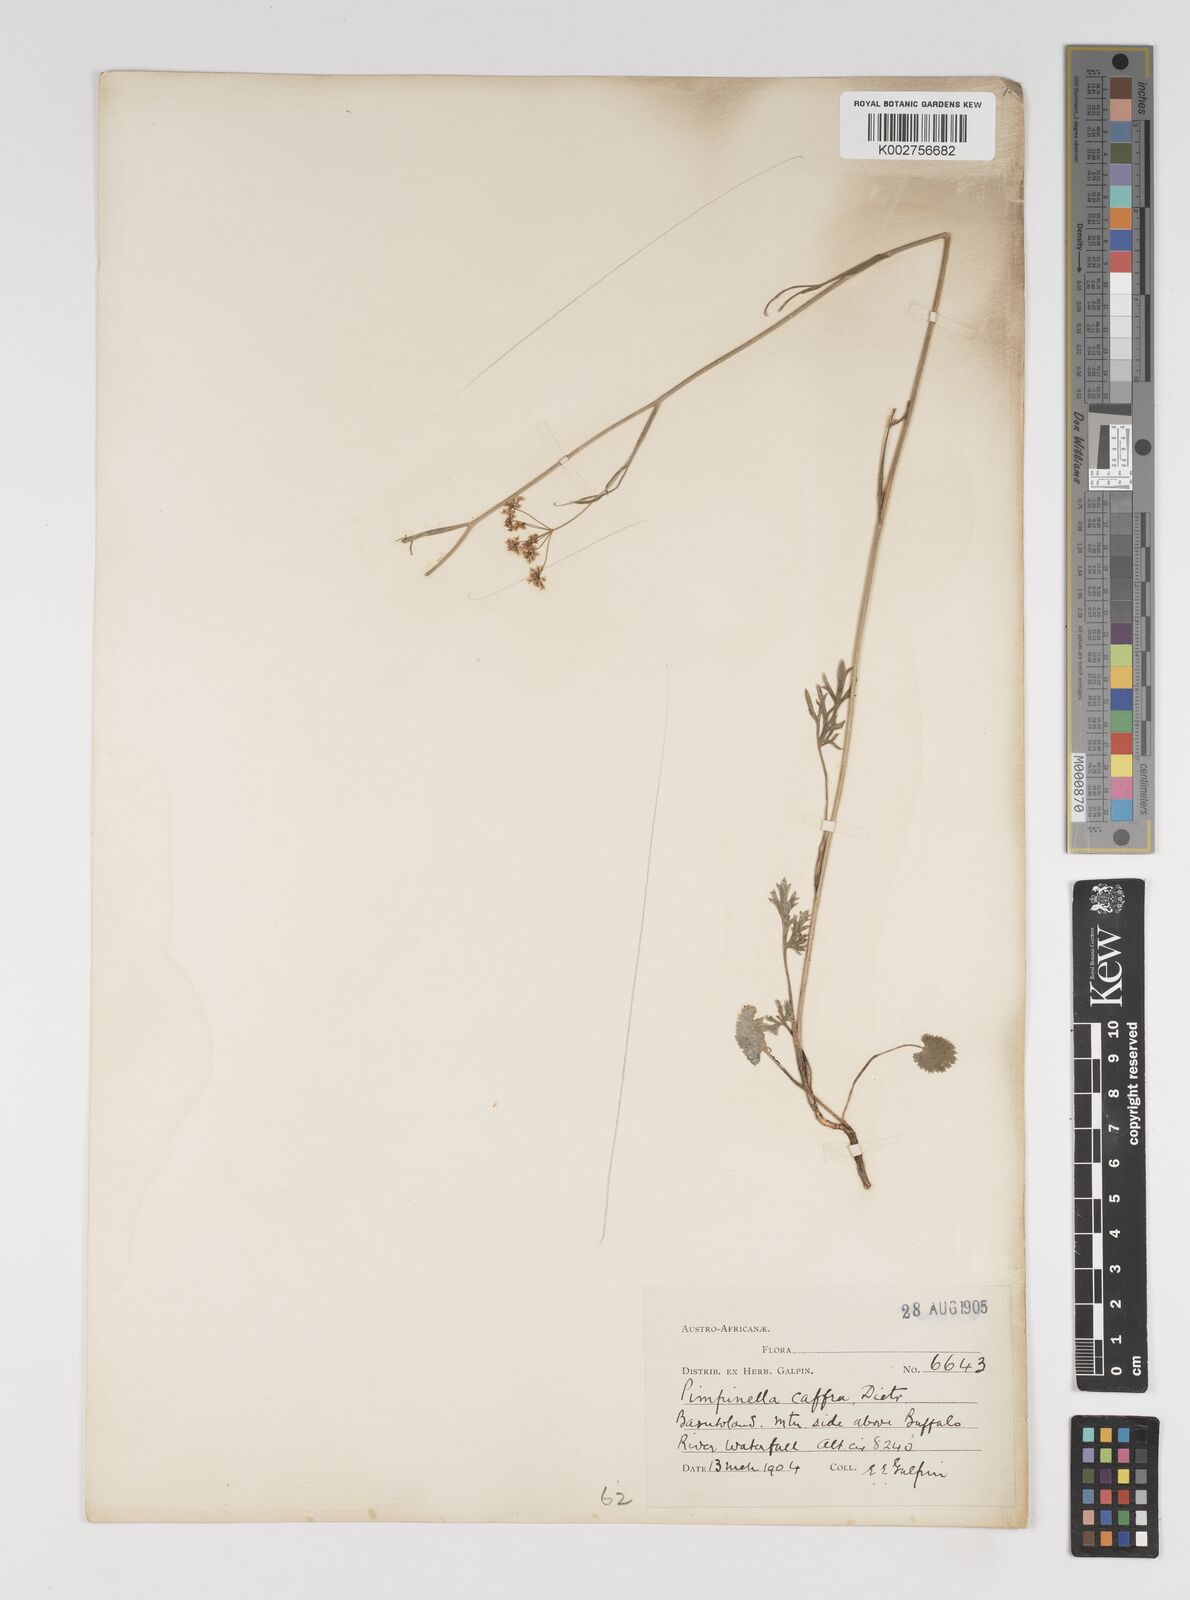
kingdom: Plantae
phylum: Tracheophyta
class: Magnoliopsida
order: Apiales
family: Apiaceae
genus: Pimpinella
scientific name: Pimpinella
